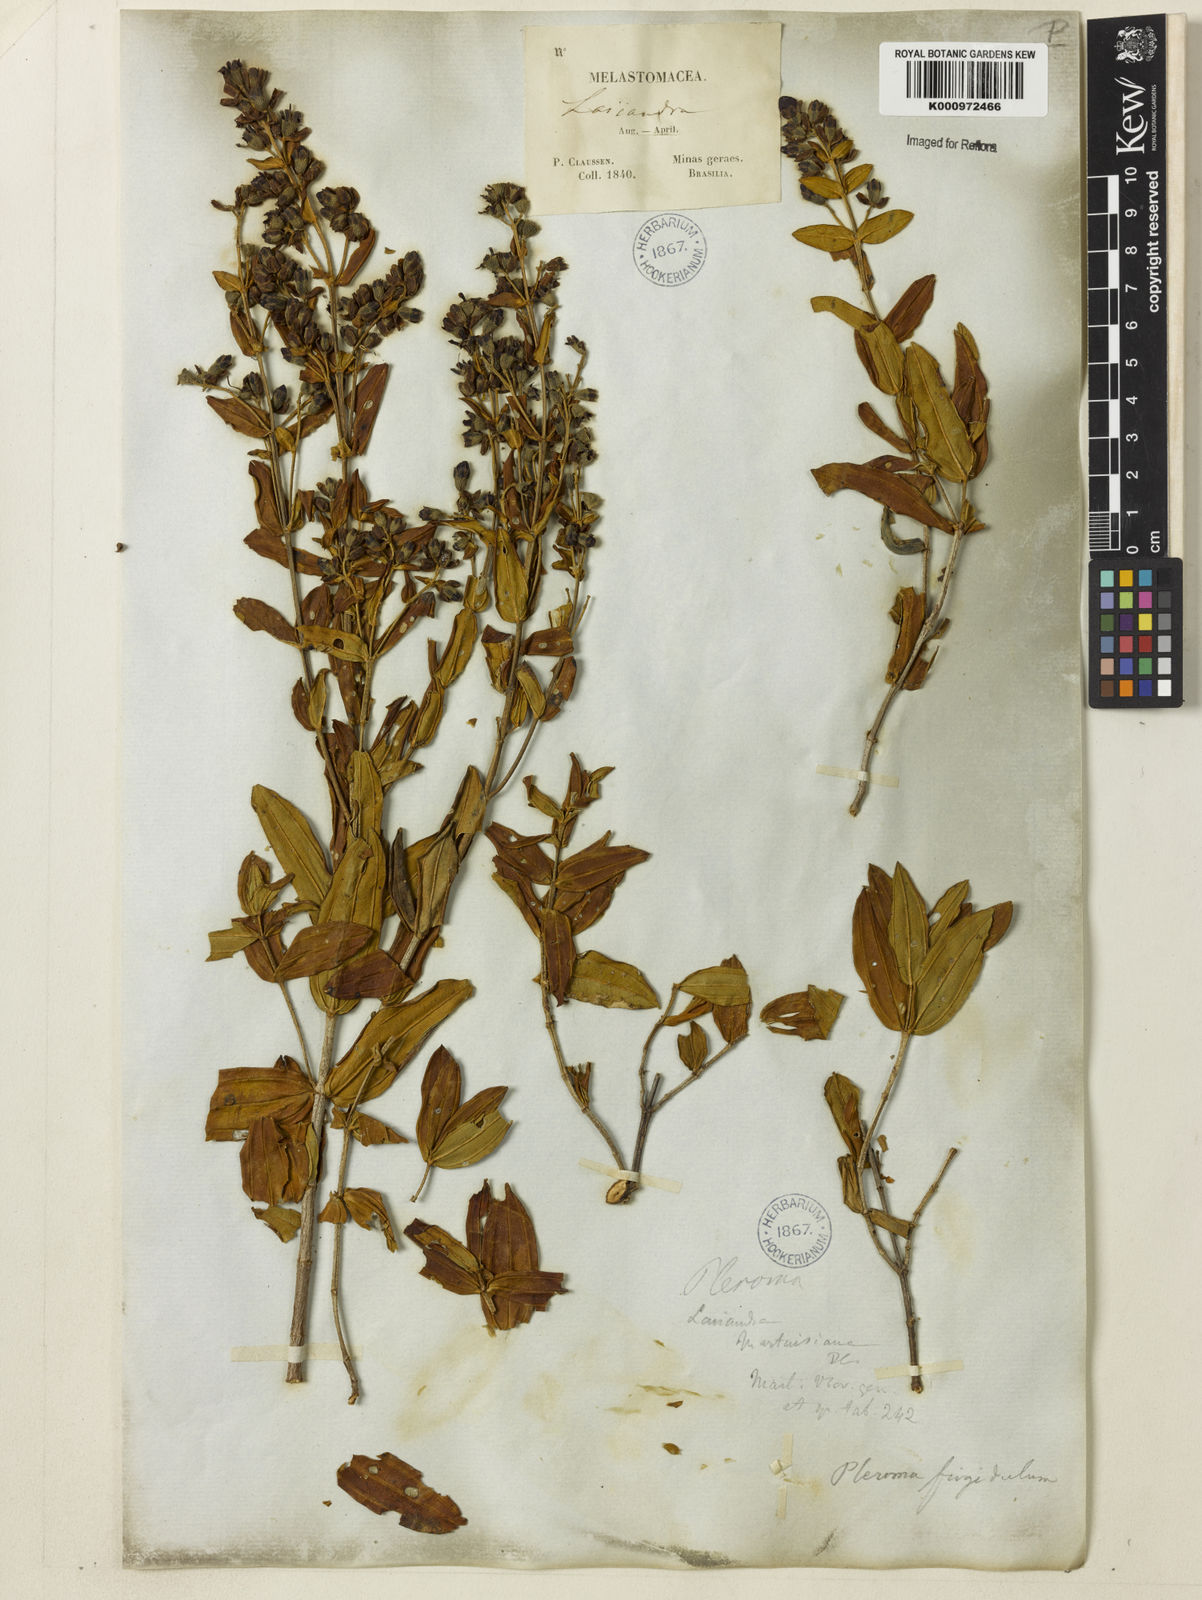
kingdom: Plantae
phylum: Tracheophyta
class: Magnoliopsida
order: Myrtales
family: Melastomataceae
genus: Pleroma
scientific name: Pleroma martiusianum
